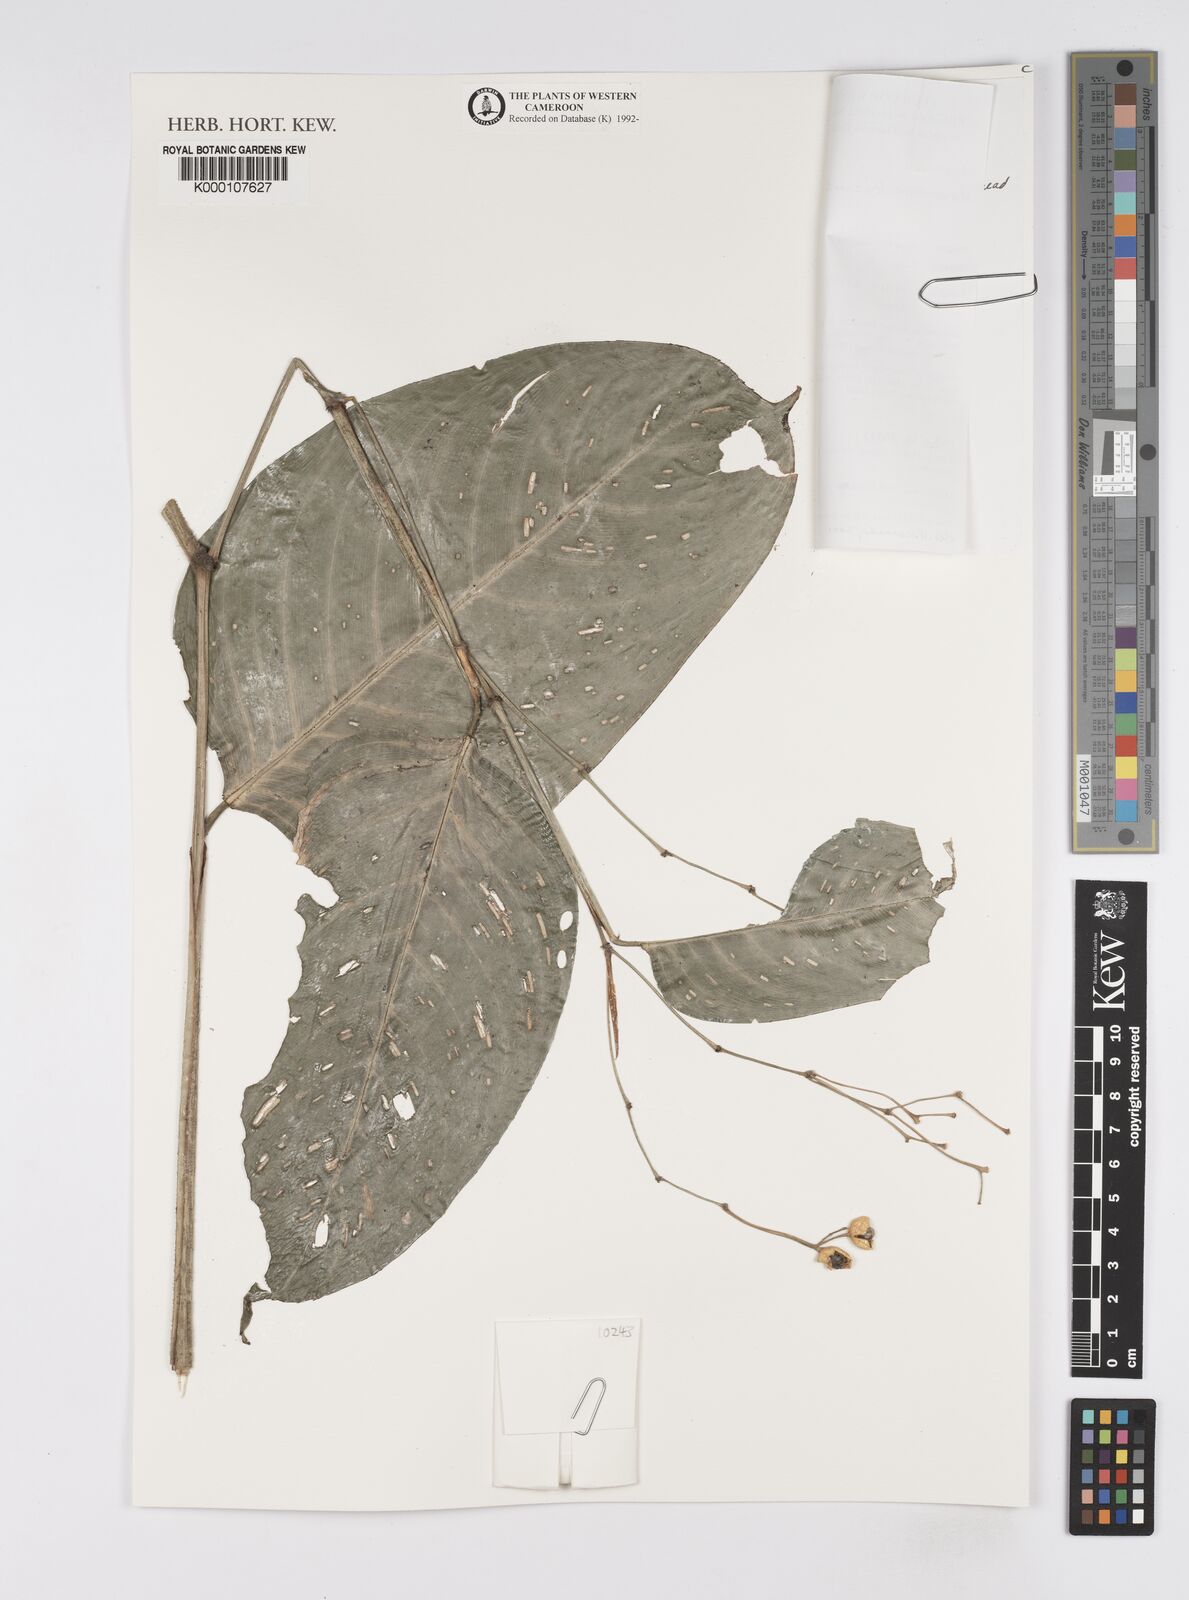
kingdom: Plantae
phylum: Tracheophyta
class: Liliopsida
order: Zingiberales
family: Marantaceae
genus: Marantochloa
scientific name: Marantochloa leucantha
